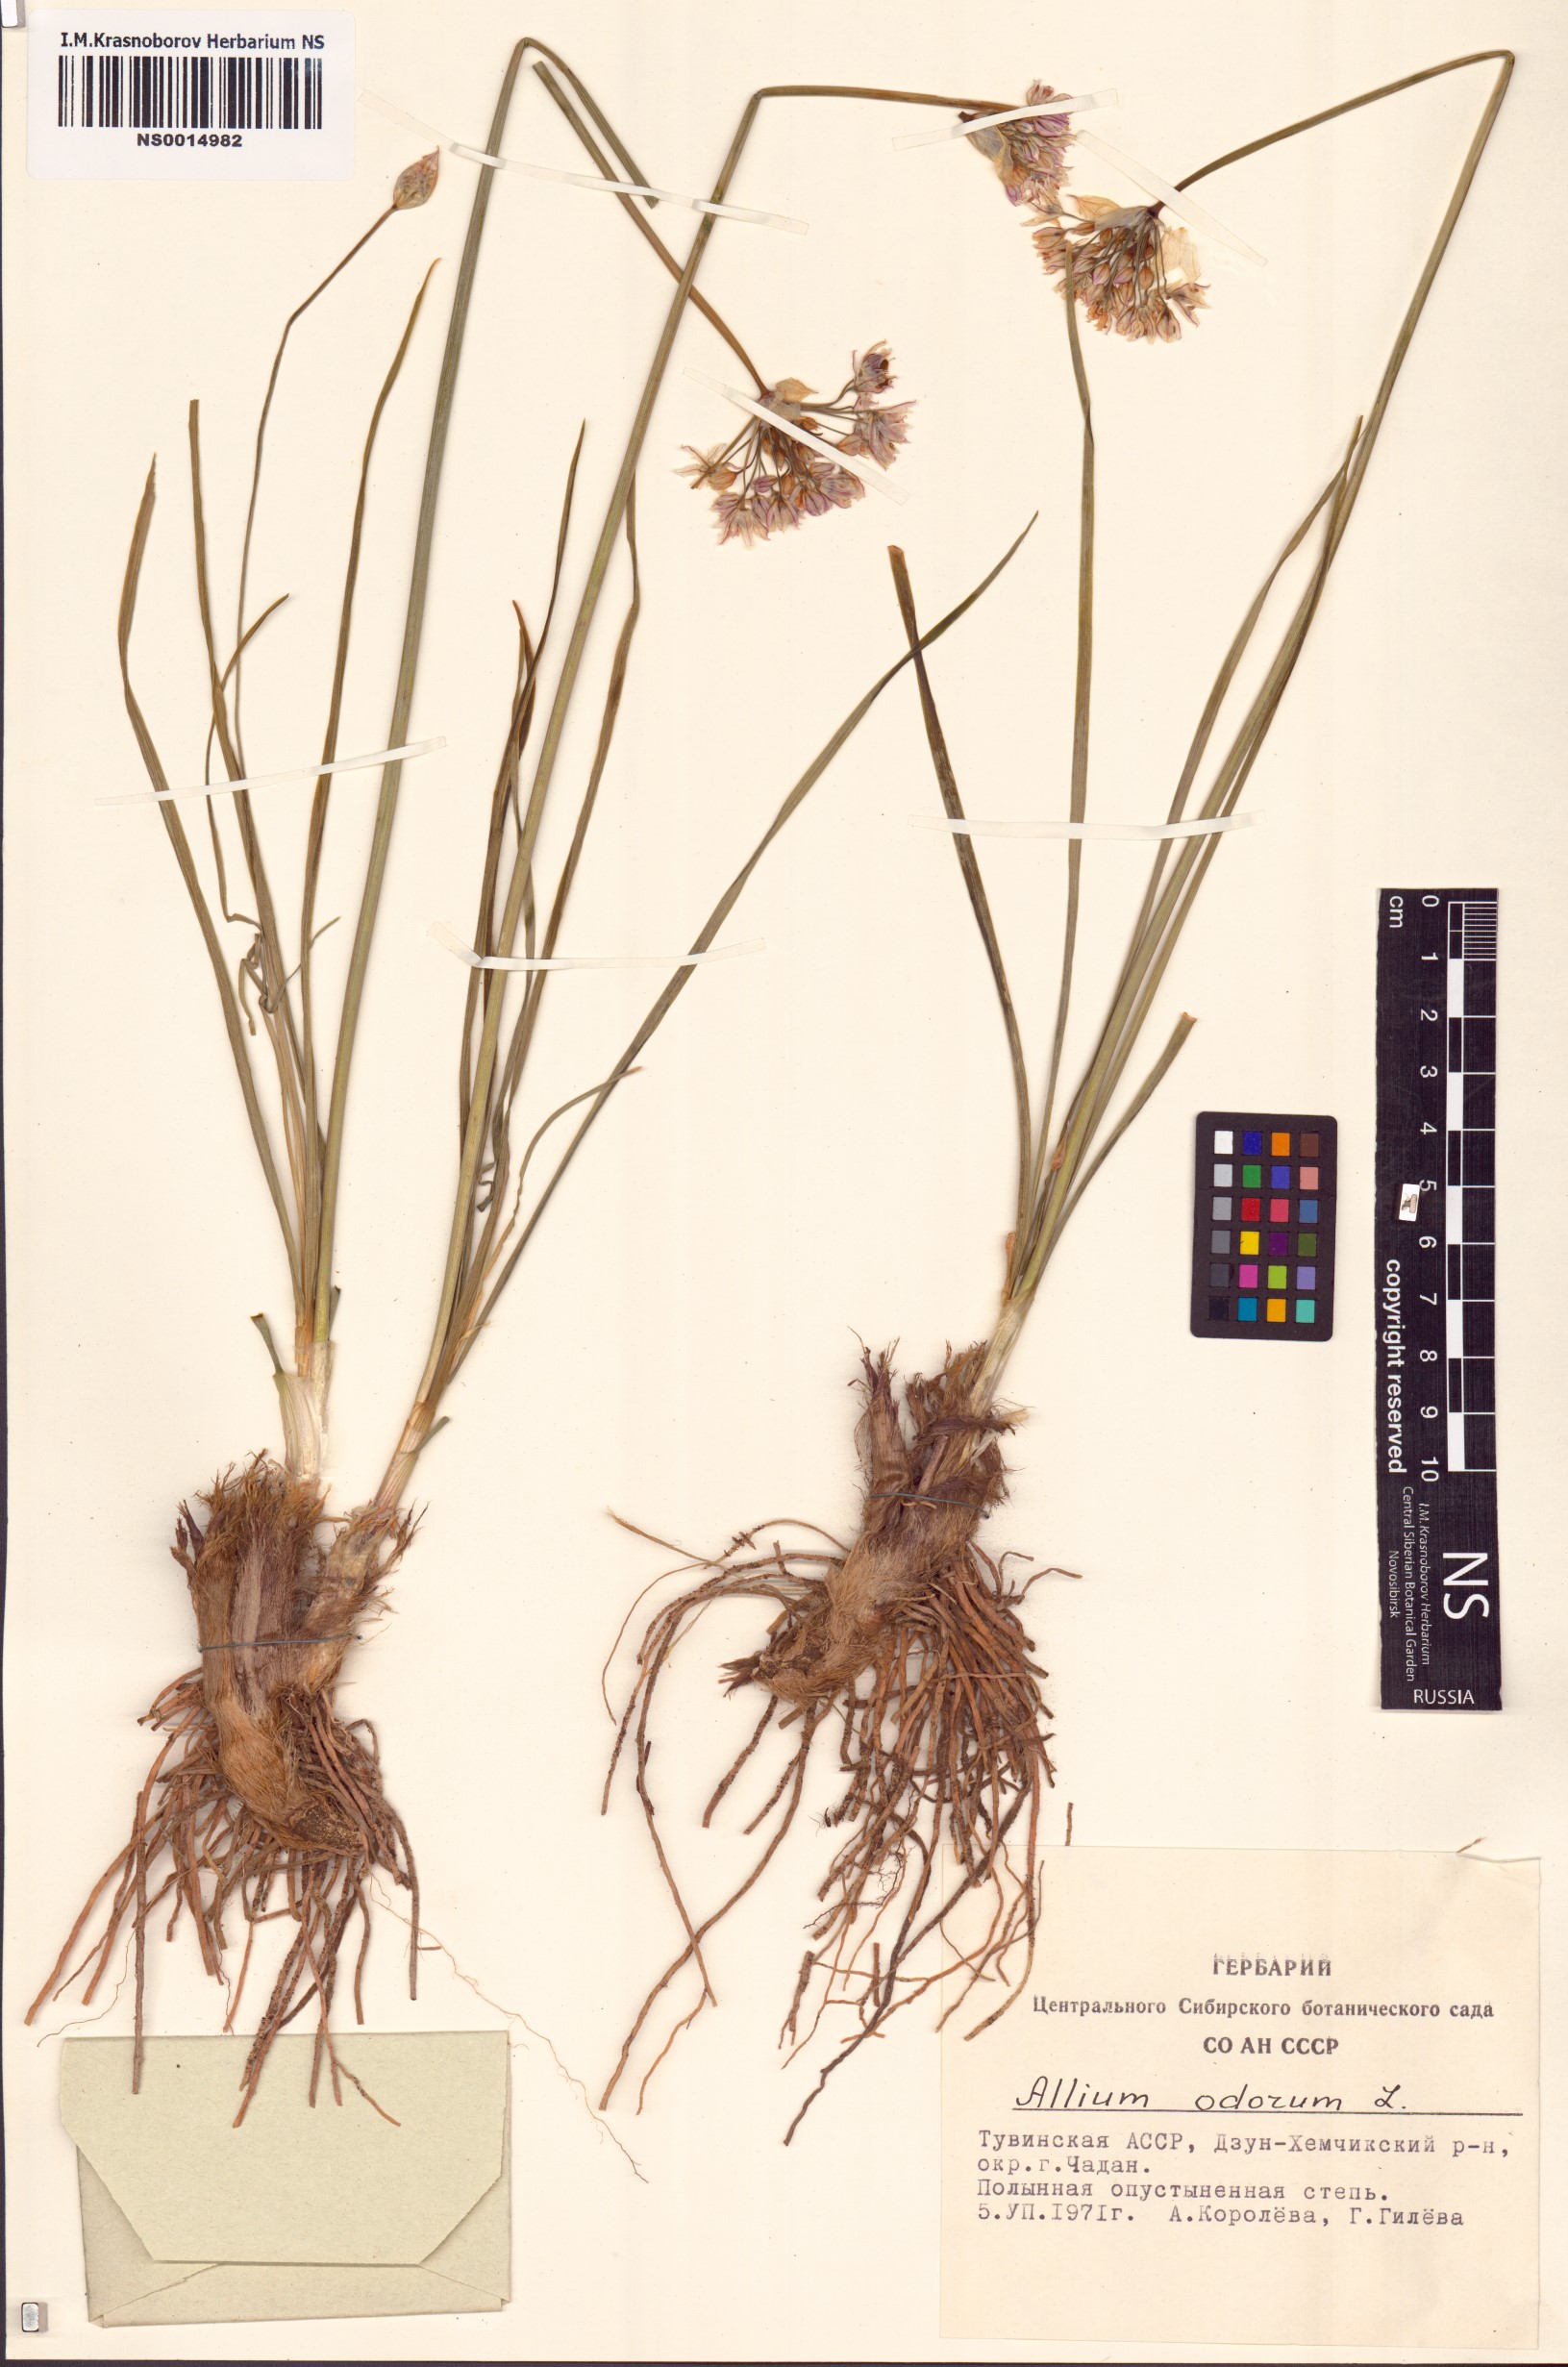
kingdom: Plantae
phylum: Tracheophyta
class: Liliopsida
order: Asparagales
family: Amaryllidaceae
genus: Allium
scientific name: Allium ramosum
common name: Fragrant garlic
